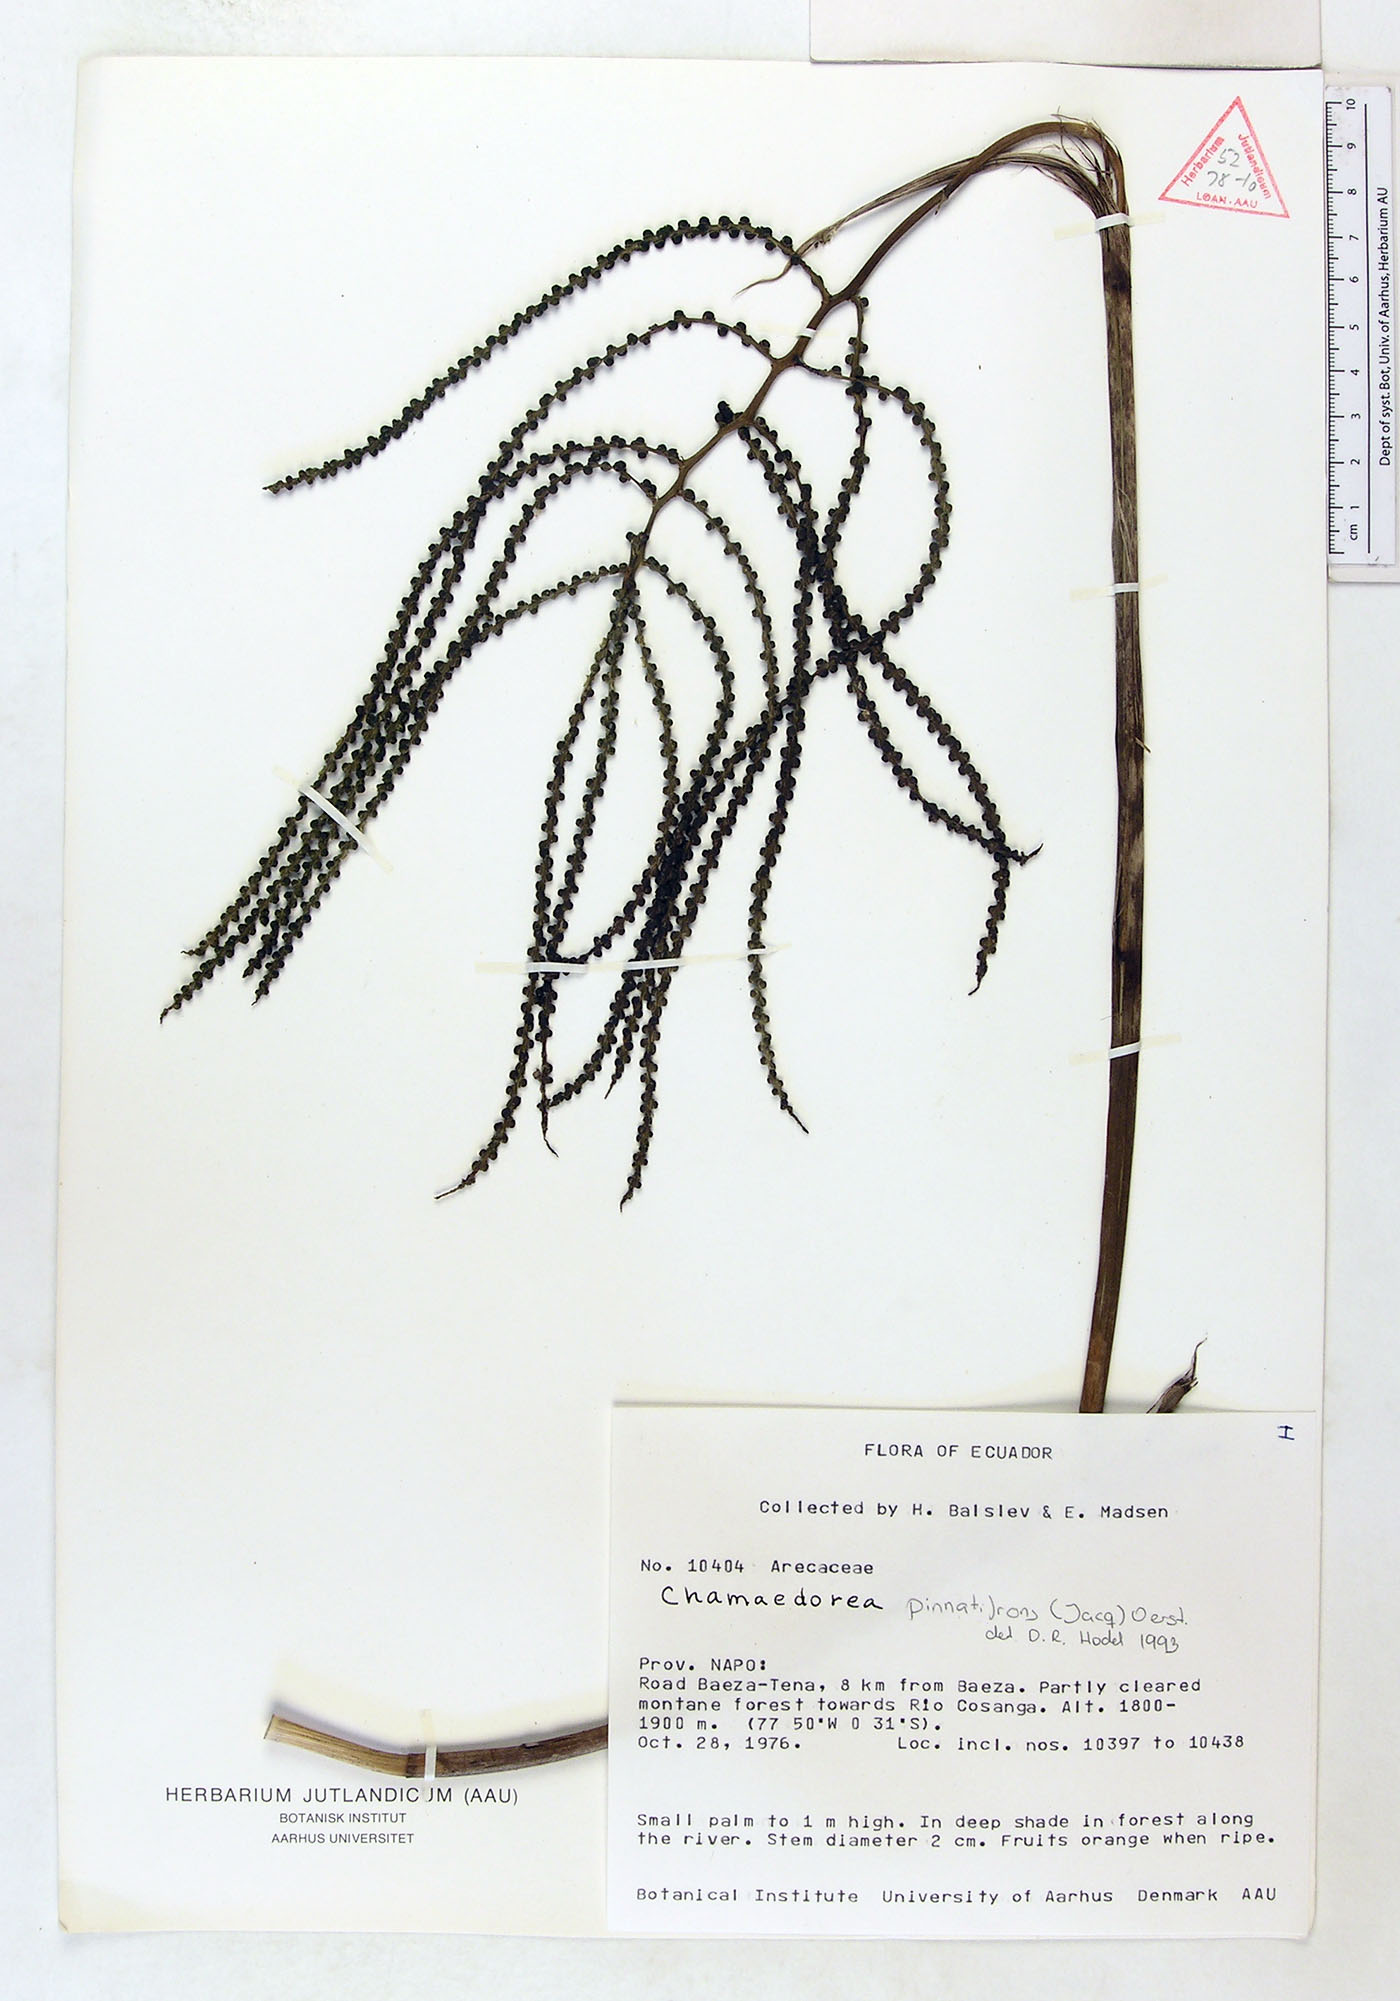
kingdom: Plantae
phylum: Tracheophyta
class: Liliopsida
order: Arecales
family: Arecaceae
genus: Chamaedorea
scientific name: Chamaedorea pinnatifrons
